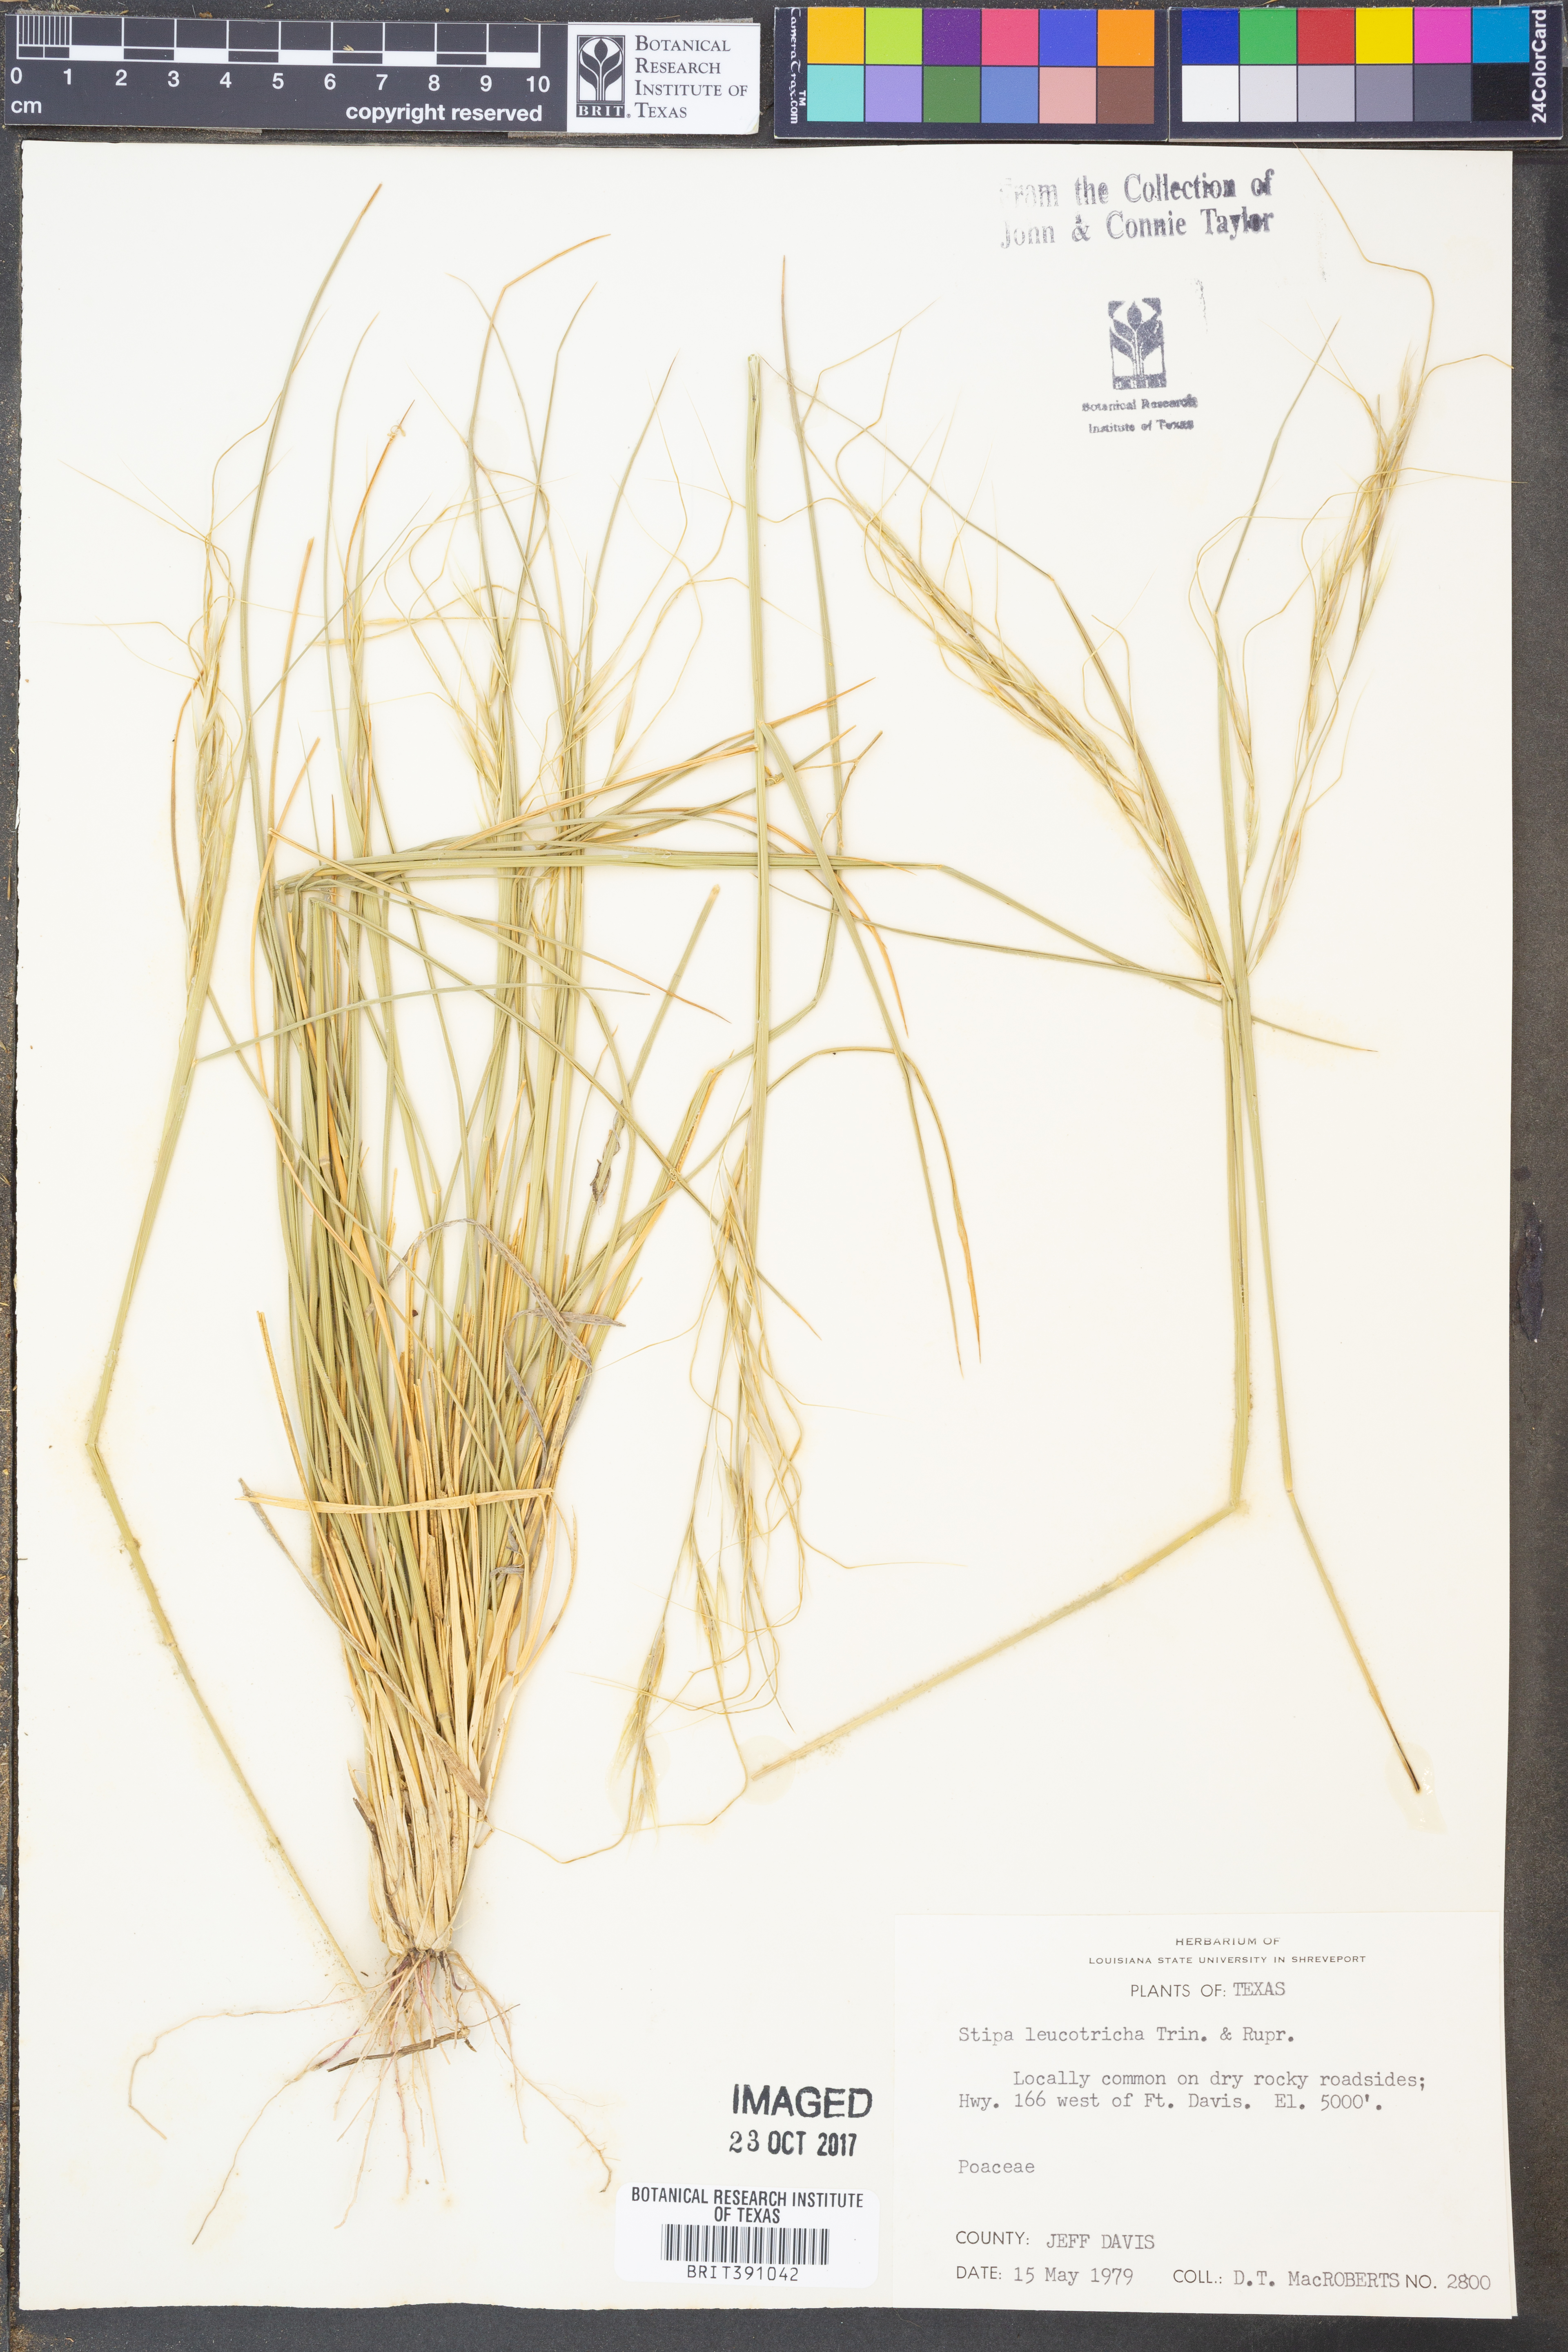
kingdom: Plantae
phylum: Tracheophyta
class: Liliopsida
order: Poales
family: Poaceae
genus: Nassella
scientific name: Nassella leucotricha
